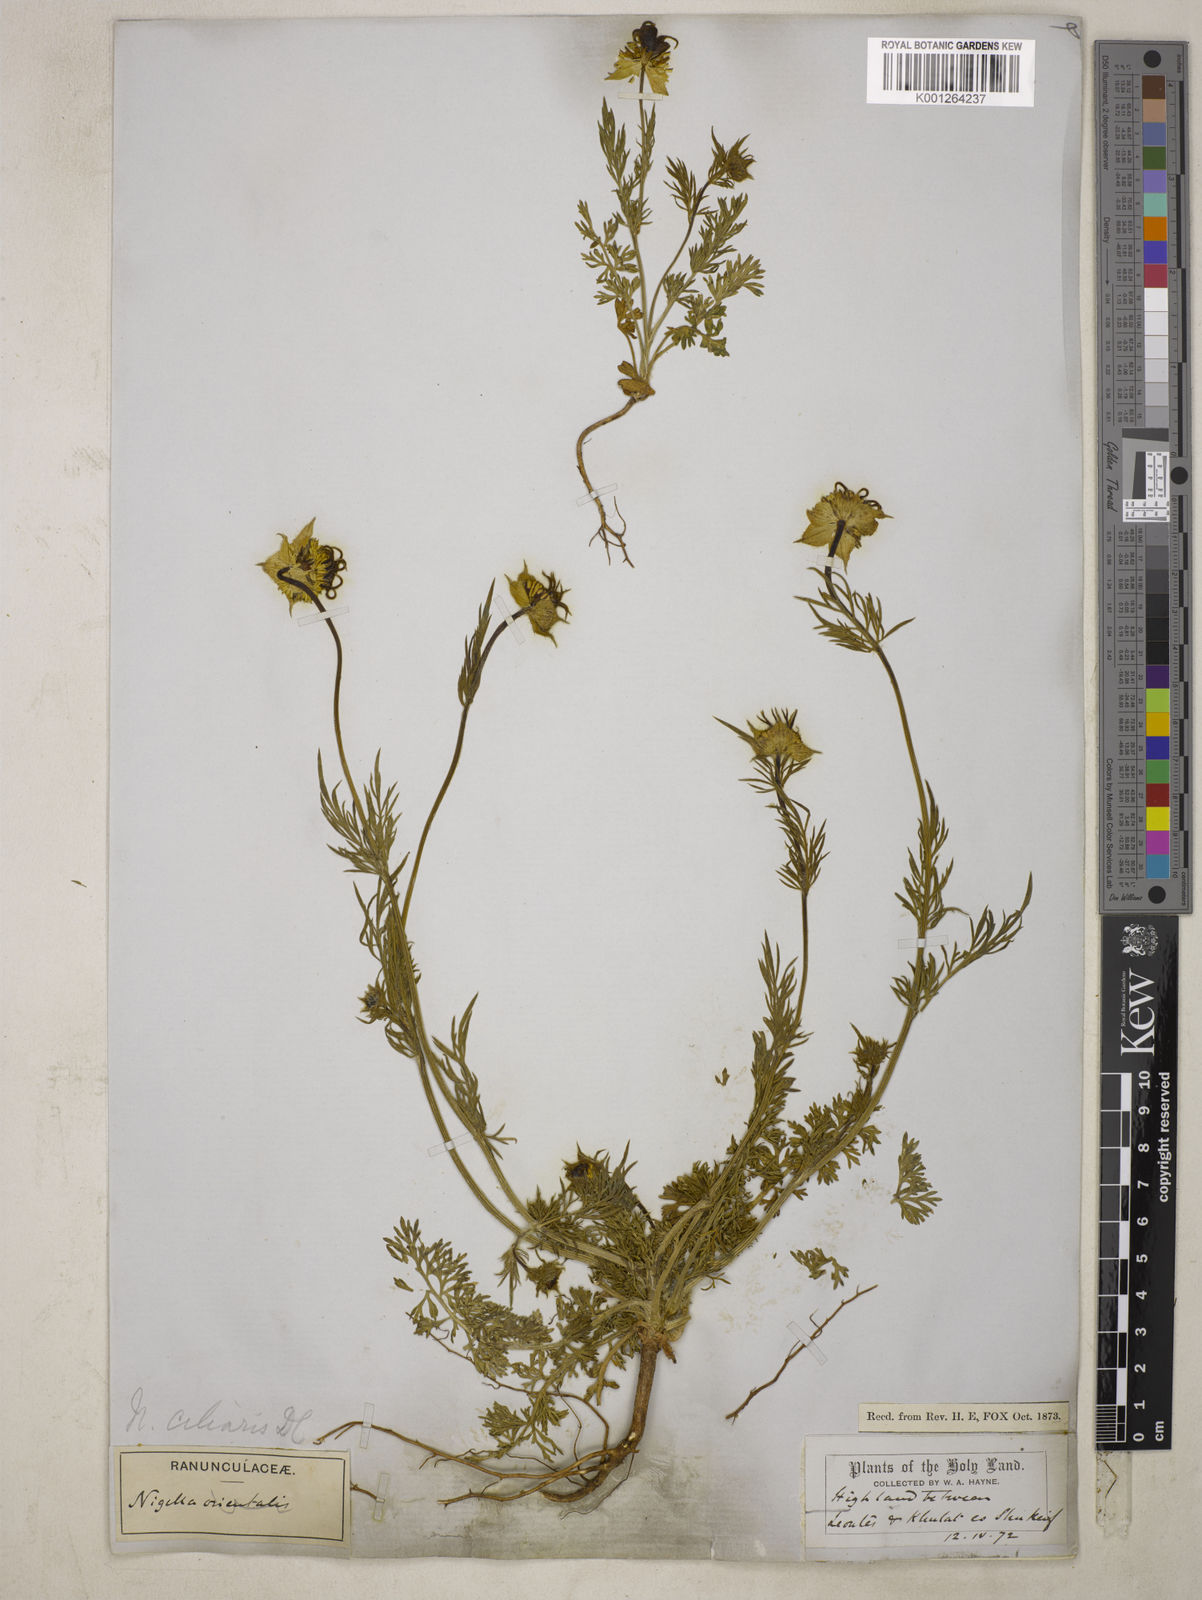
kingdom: Plantae
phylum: Tracheophyta
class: Magnoliopsida
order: Ranunculales
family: Ranunculaceae
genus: Nigella
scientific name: Nigella ciliaris
